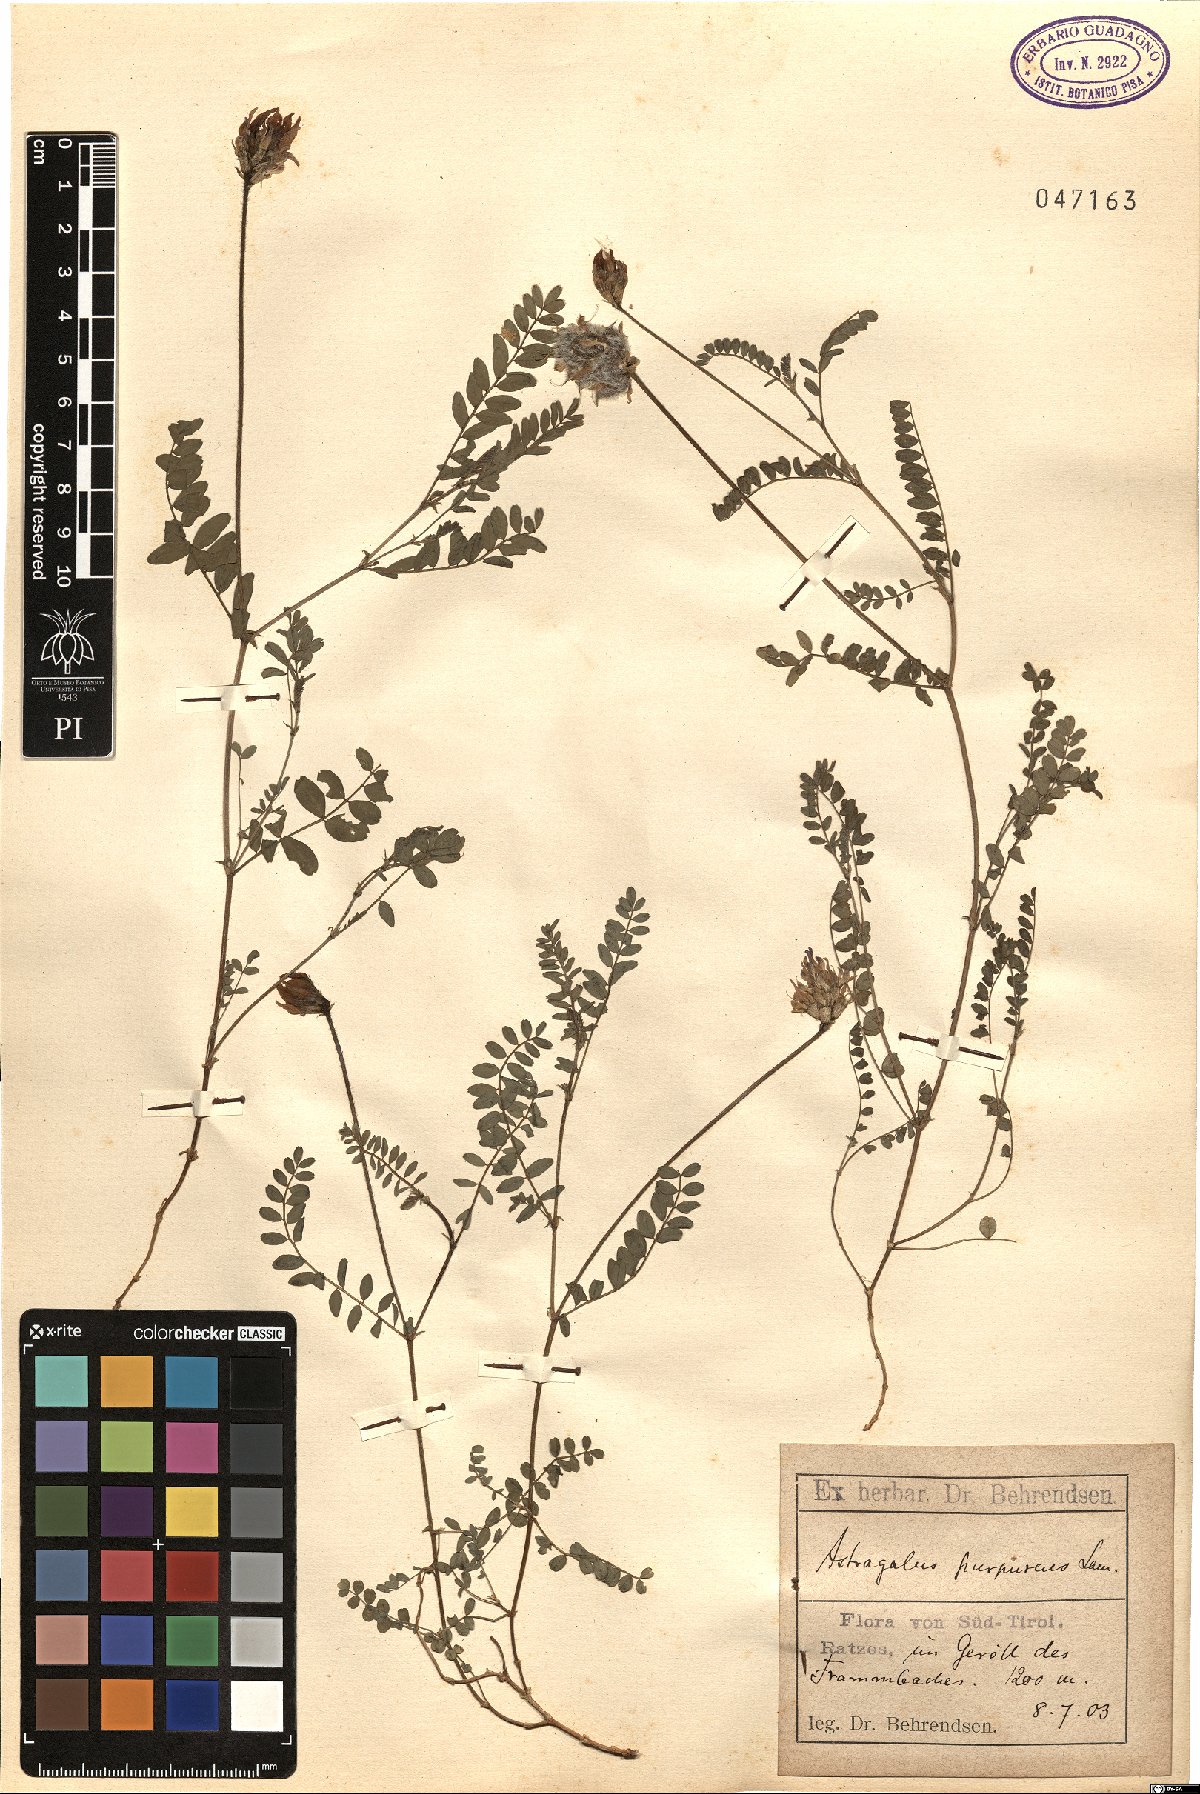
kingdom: Plantae
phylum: Tracheophyta
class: Magnoliopsida
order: Fabales
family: Fabaceae
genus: Astragalus
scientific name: Astragalus hypoglottis
